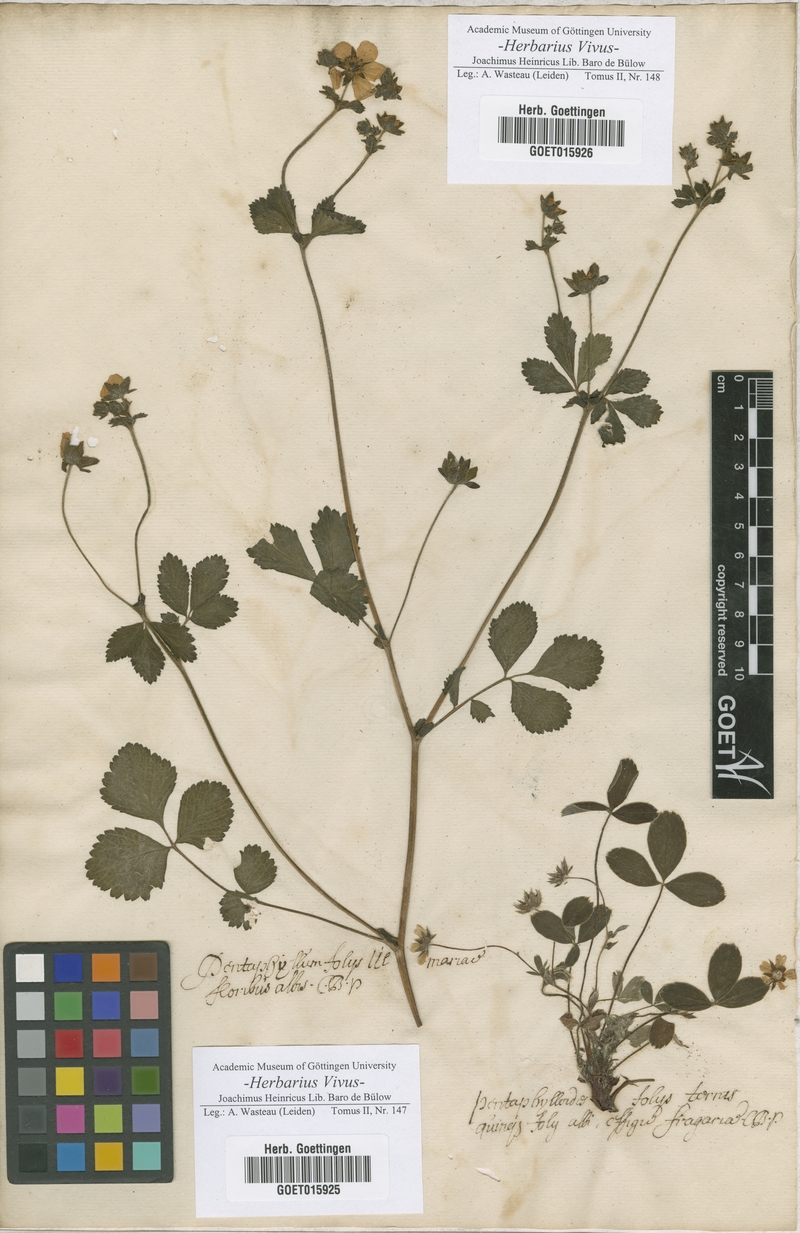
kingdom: Animalia
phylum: Cnidaria
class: Anthozoa
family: Pentaphyllidae
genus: Pentaphyllum
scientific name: Pentaphyllum
